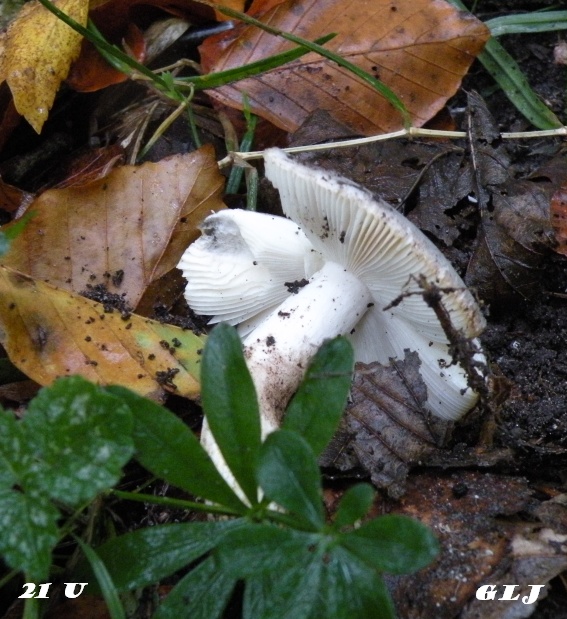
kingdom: Fungi
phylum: Basidiomycota
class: Agaricomycetes
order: Russulales
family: Russulaceae
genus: Russula
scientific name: Russula cyanoxantha
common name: broget skørhat
